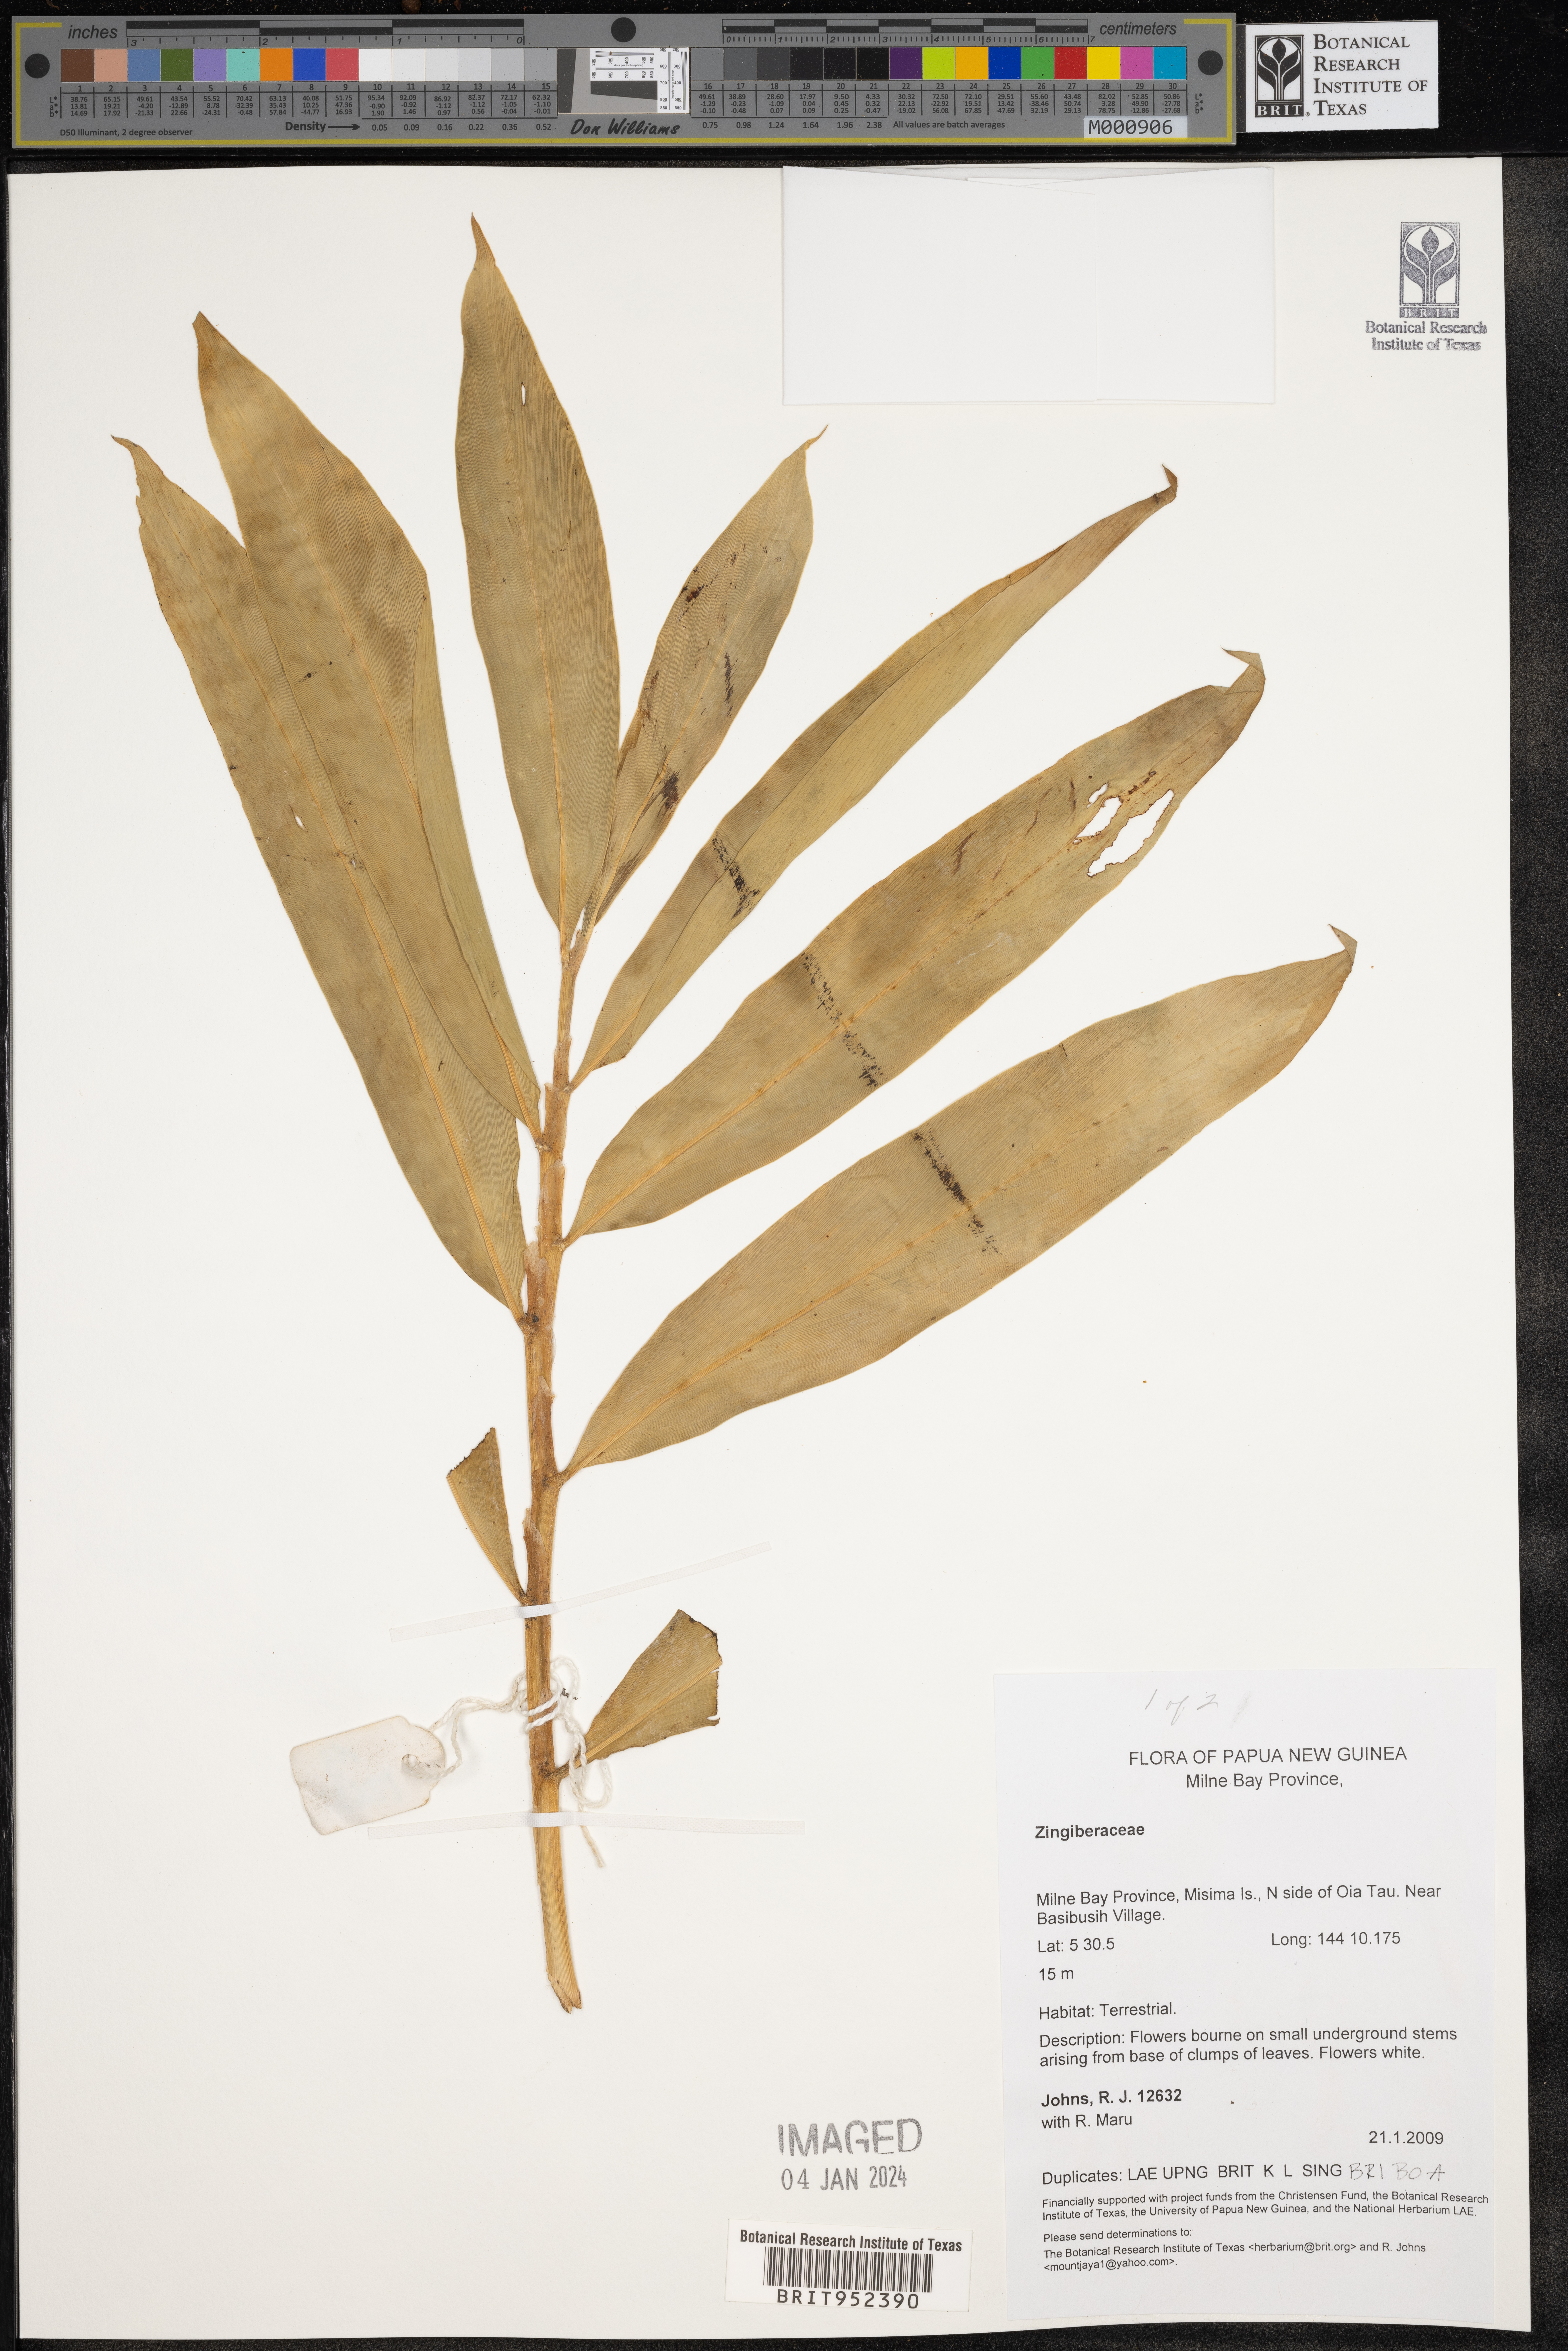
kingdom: Plantae
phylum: Tracheophyta
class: Liliopsida
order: Zingiberales
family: Zingiberaceae
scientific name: Zingiberaceae
